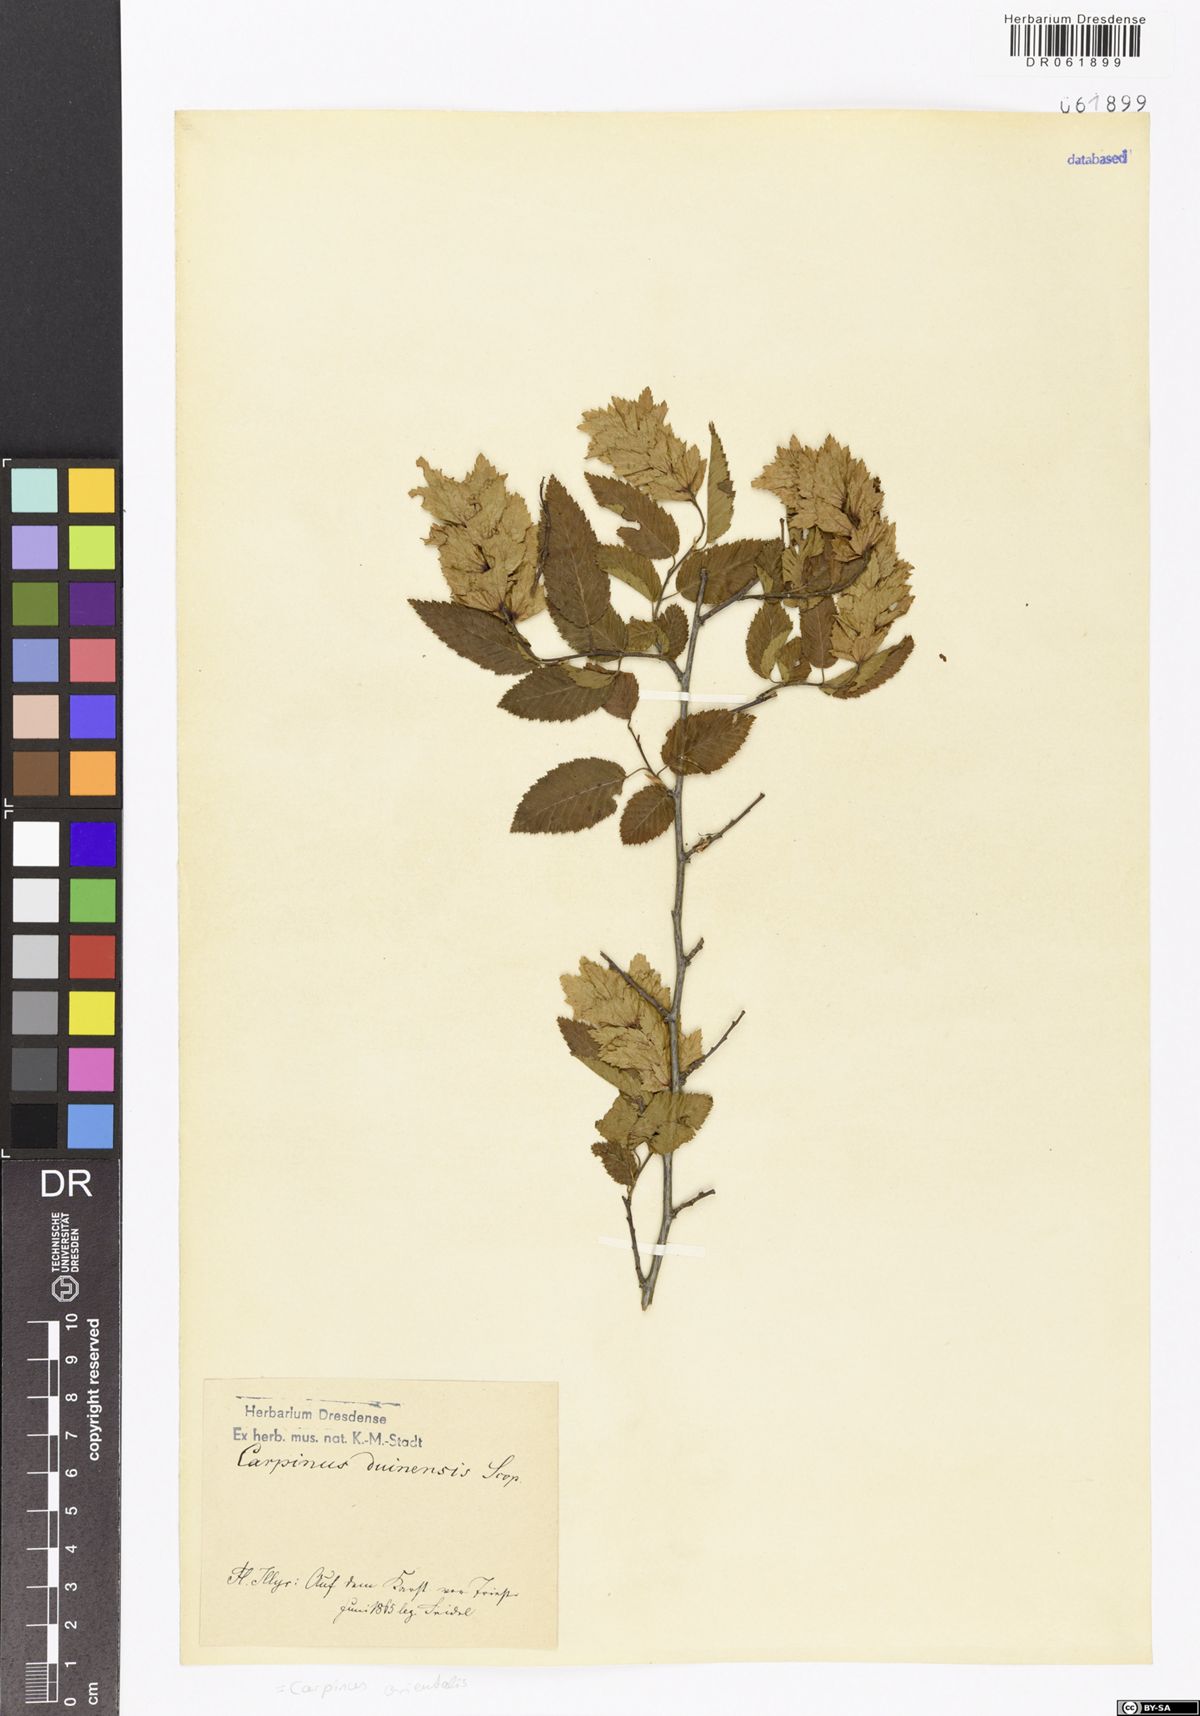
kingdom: Plantae
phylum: Tracheophyta
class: Magnoliopsida
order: Fagales
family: Betulaceae
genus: Carpinus
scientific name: Carpinus orientalis
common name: Eastern hornbeam
